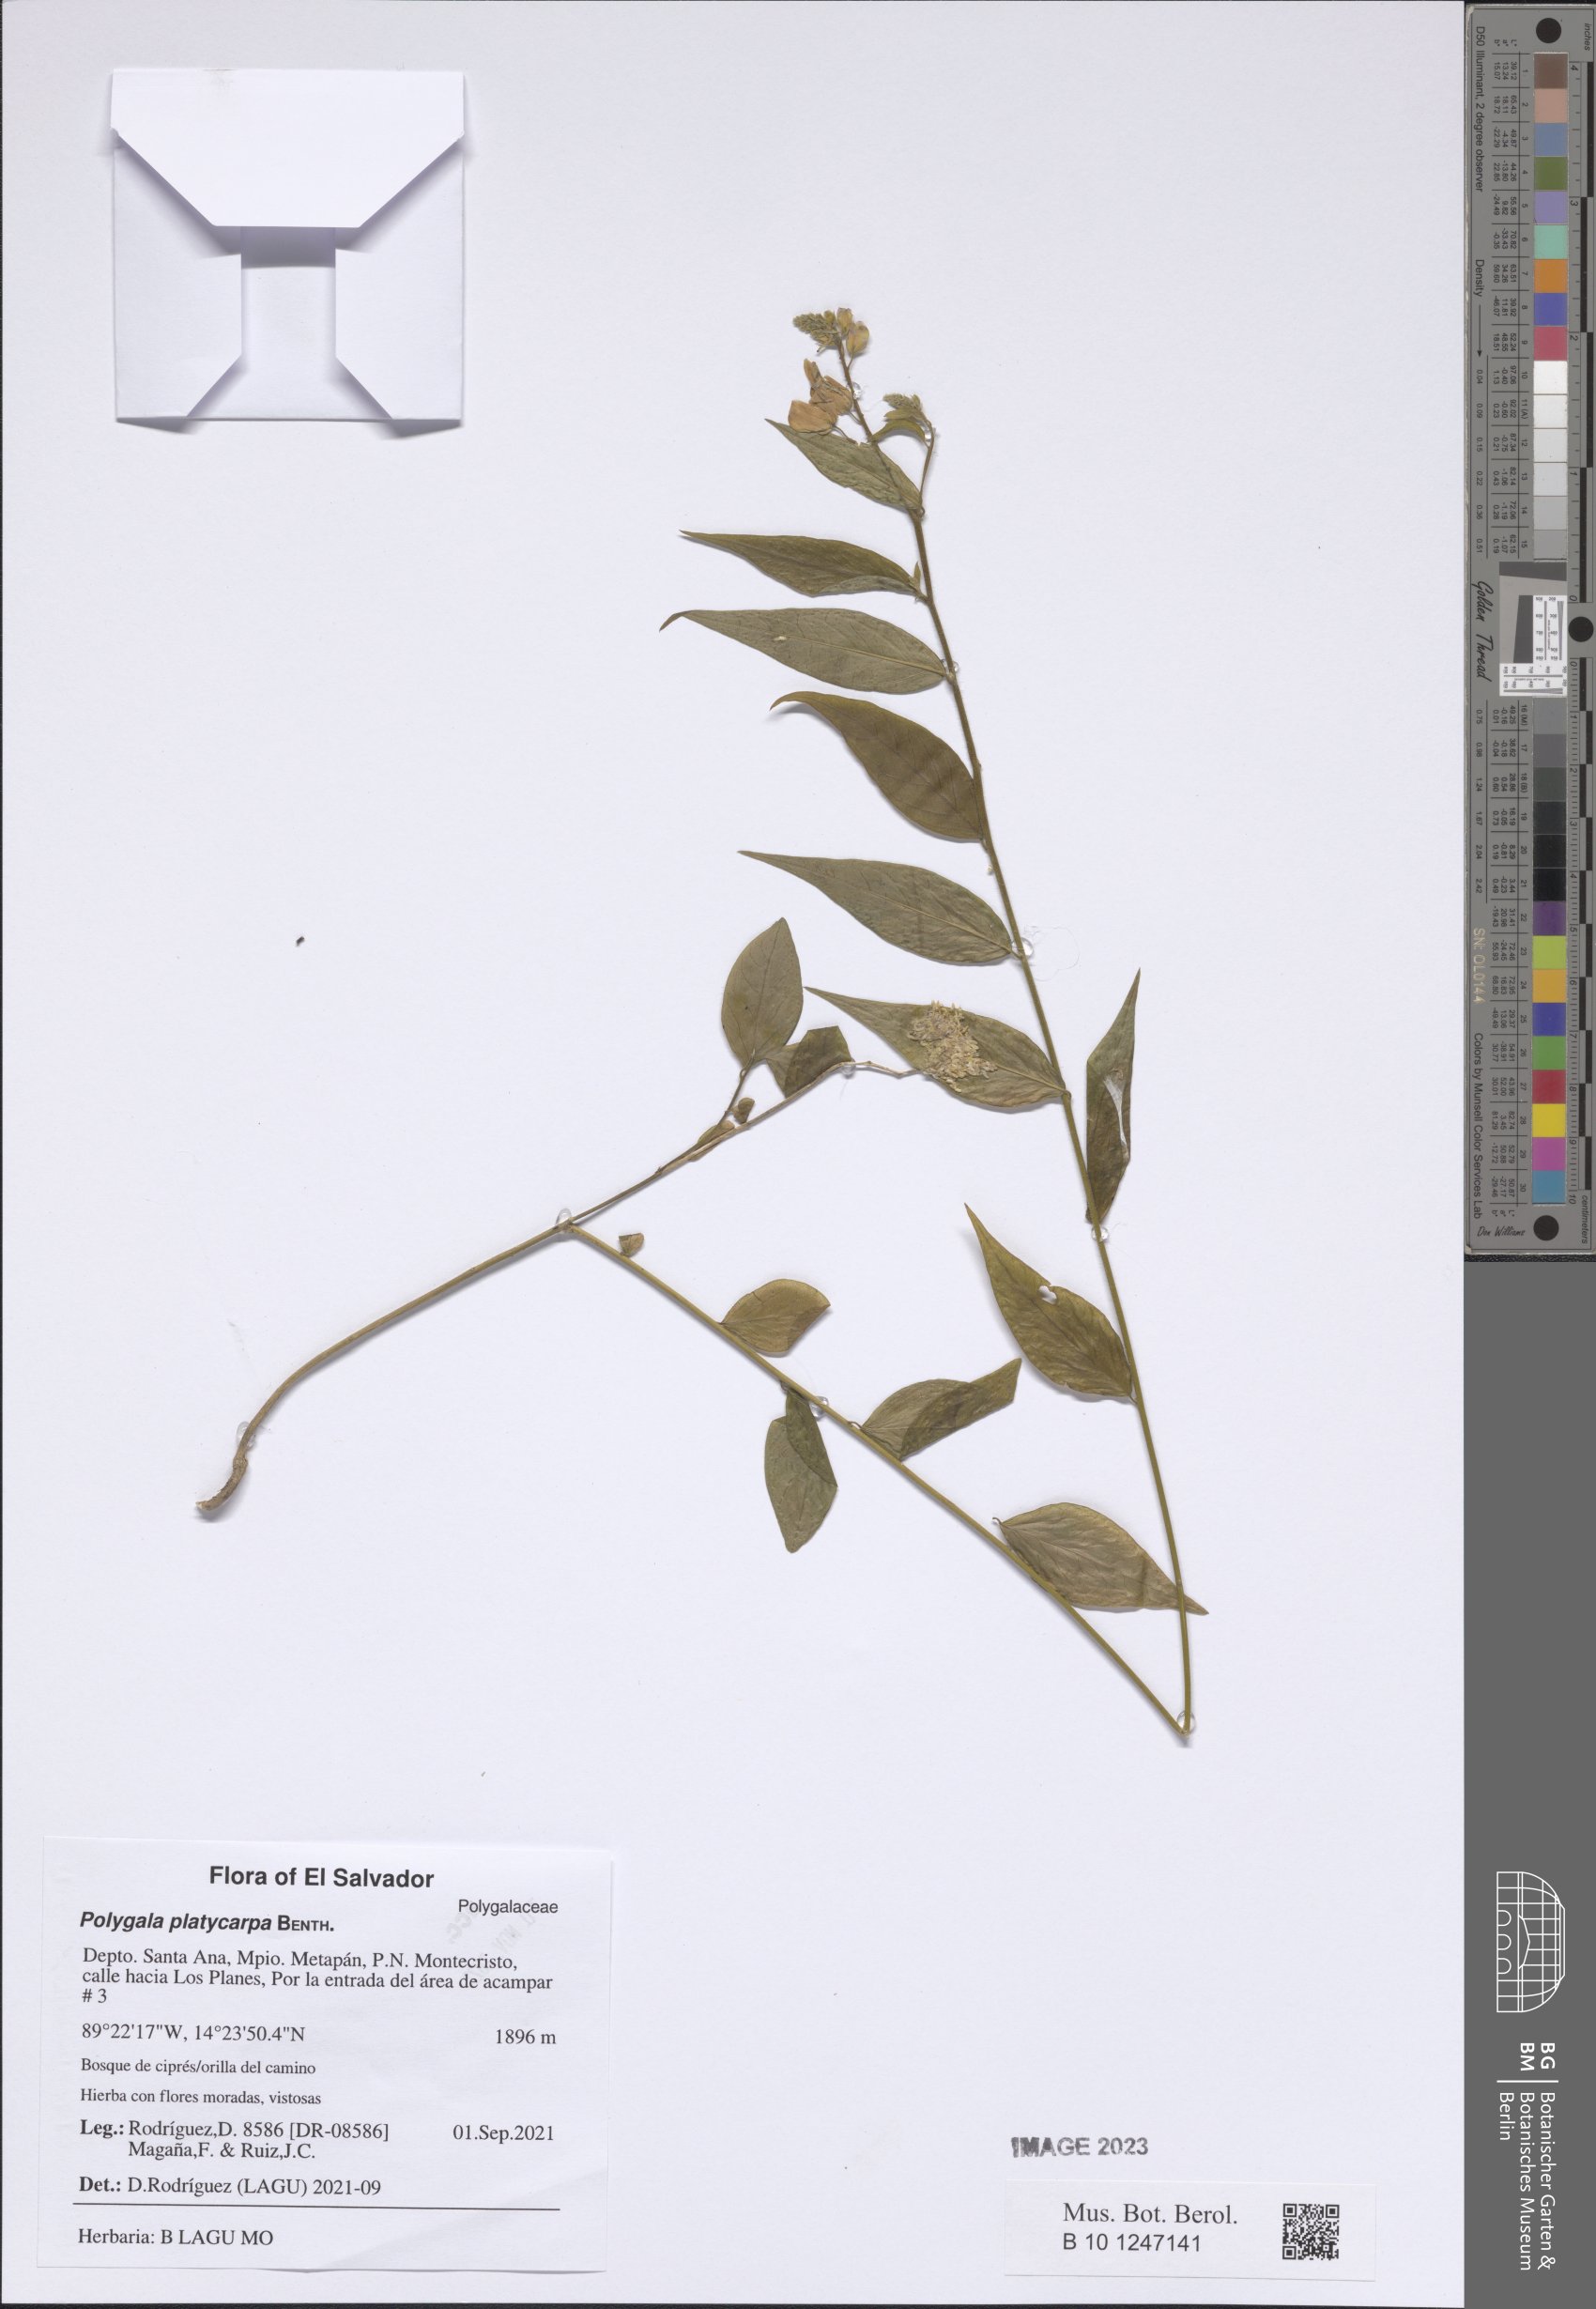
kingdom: Plantae
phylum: Tracheophyta
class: Magnoliopsida
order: Fabales
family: Polygalaceae
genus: Hebecarpa
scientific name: Hebecarpa platycarpa
